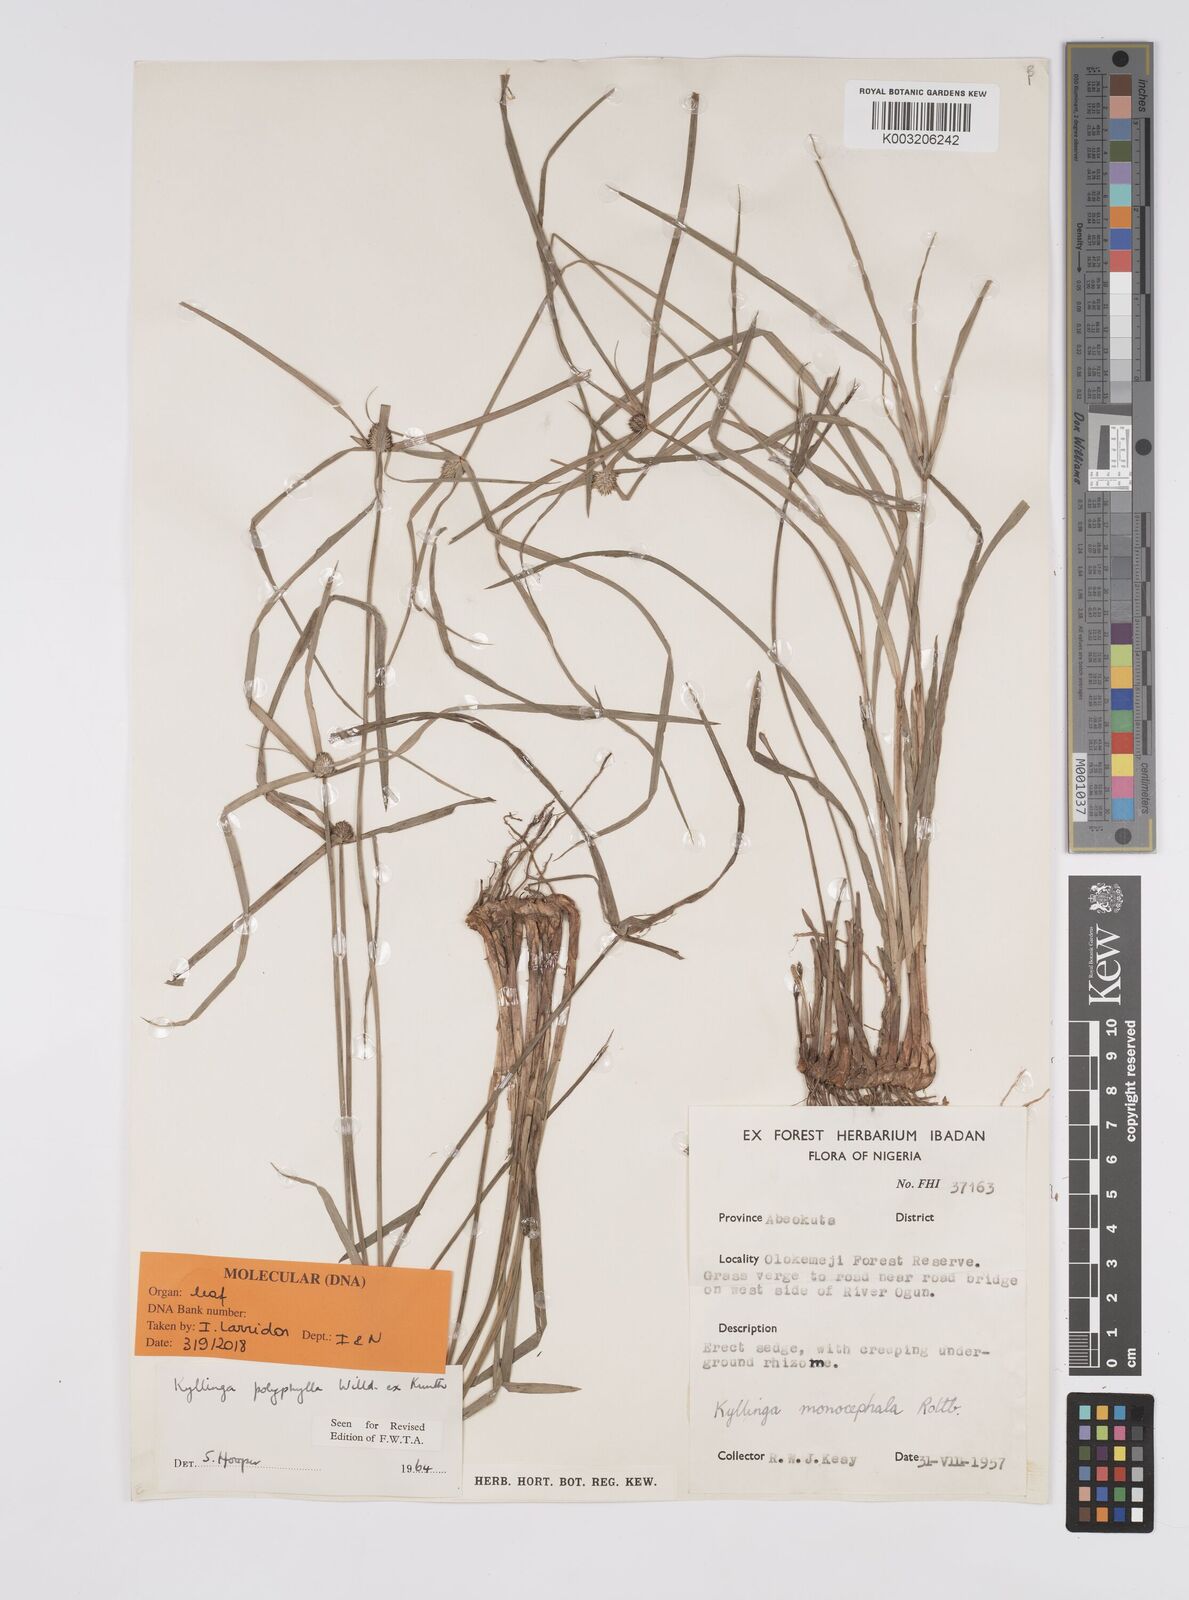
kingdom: Plantae
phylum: Tracheophyta
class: Liliopsida
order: Poales
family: Cyperaceae
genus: Cyperus
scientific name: Cyperus
